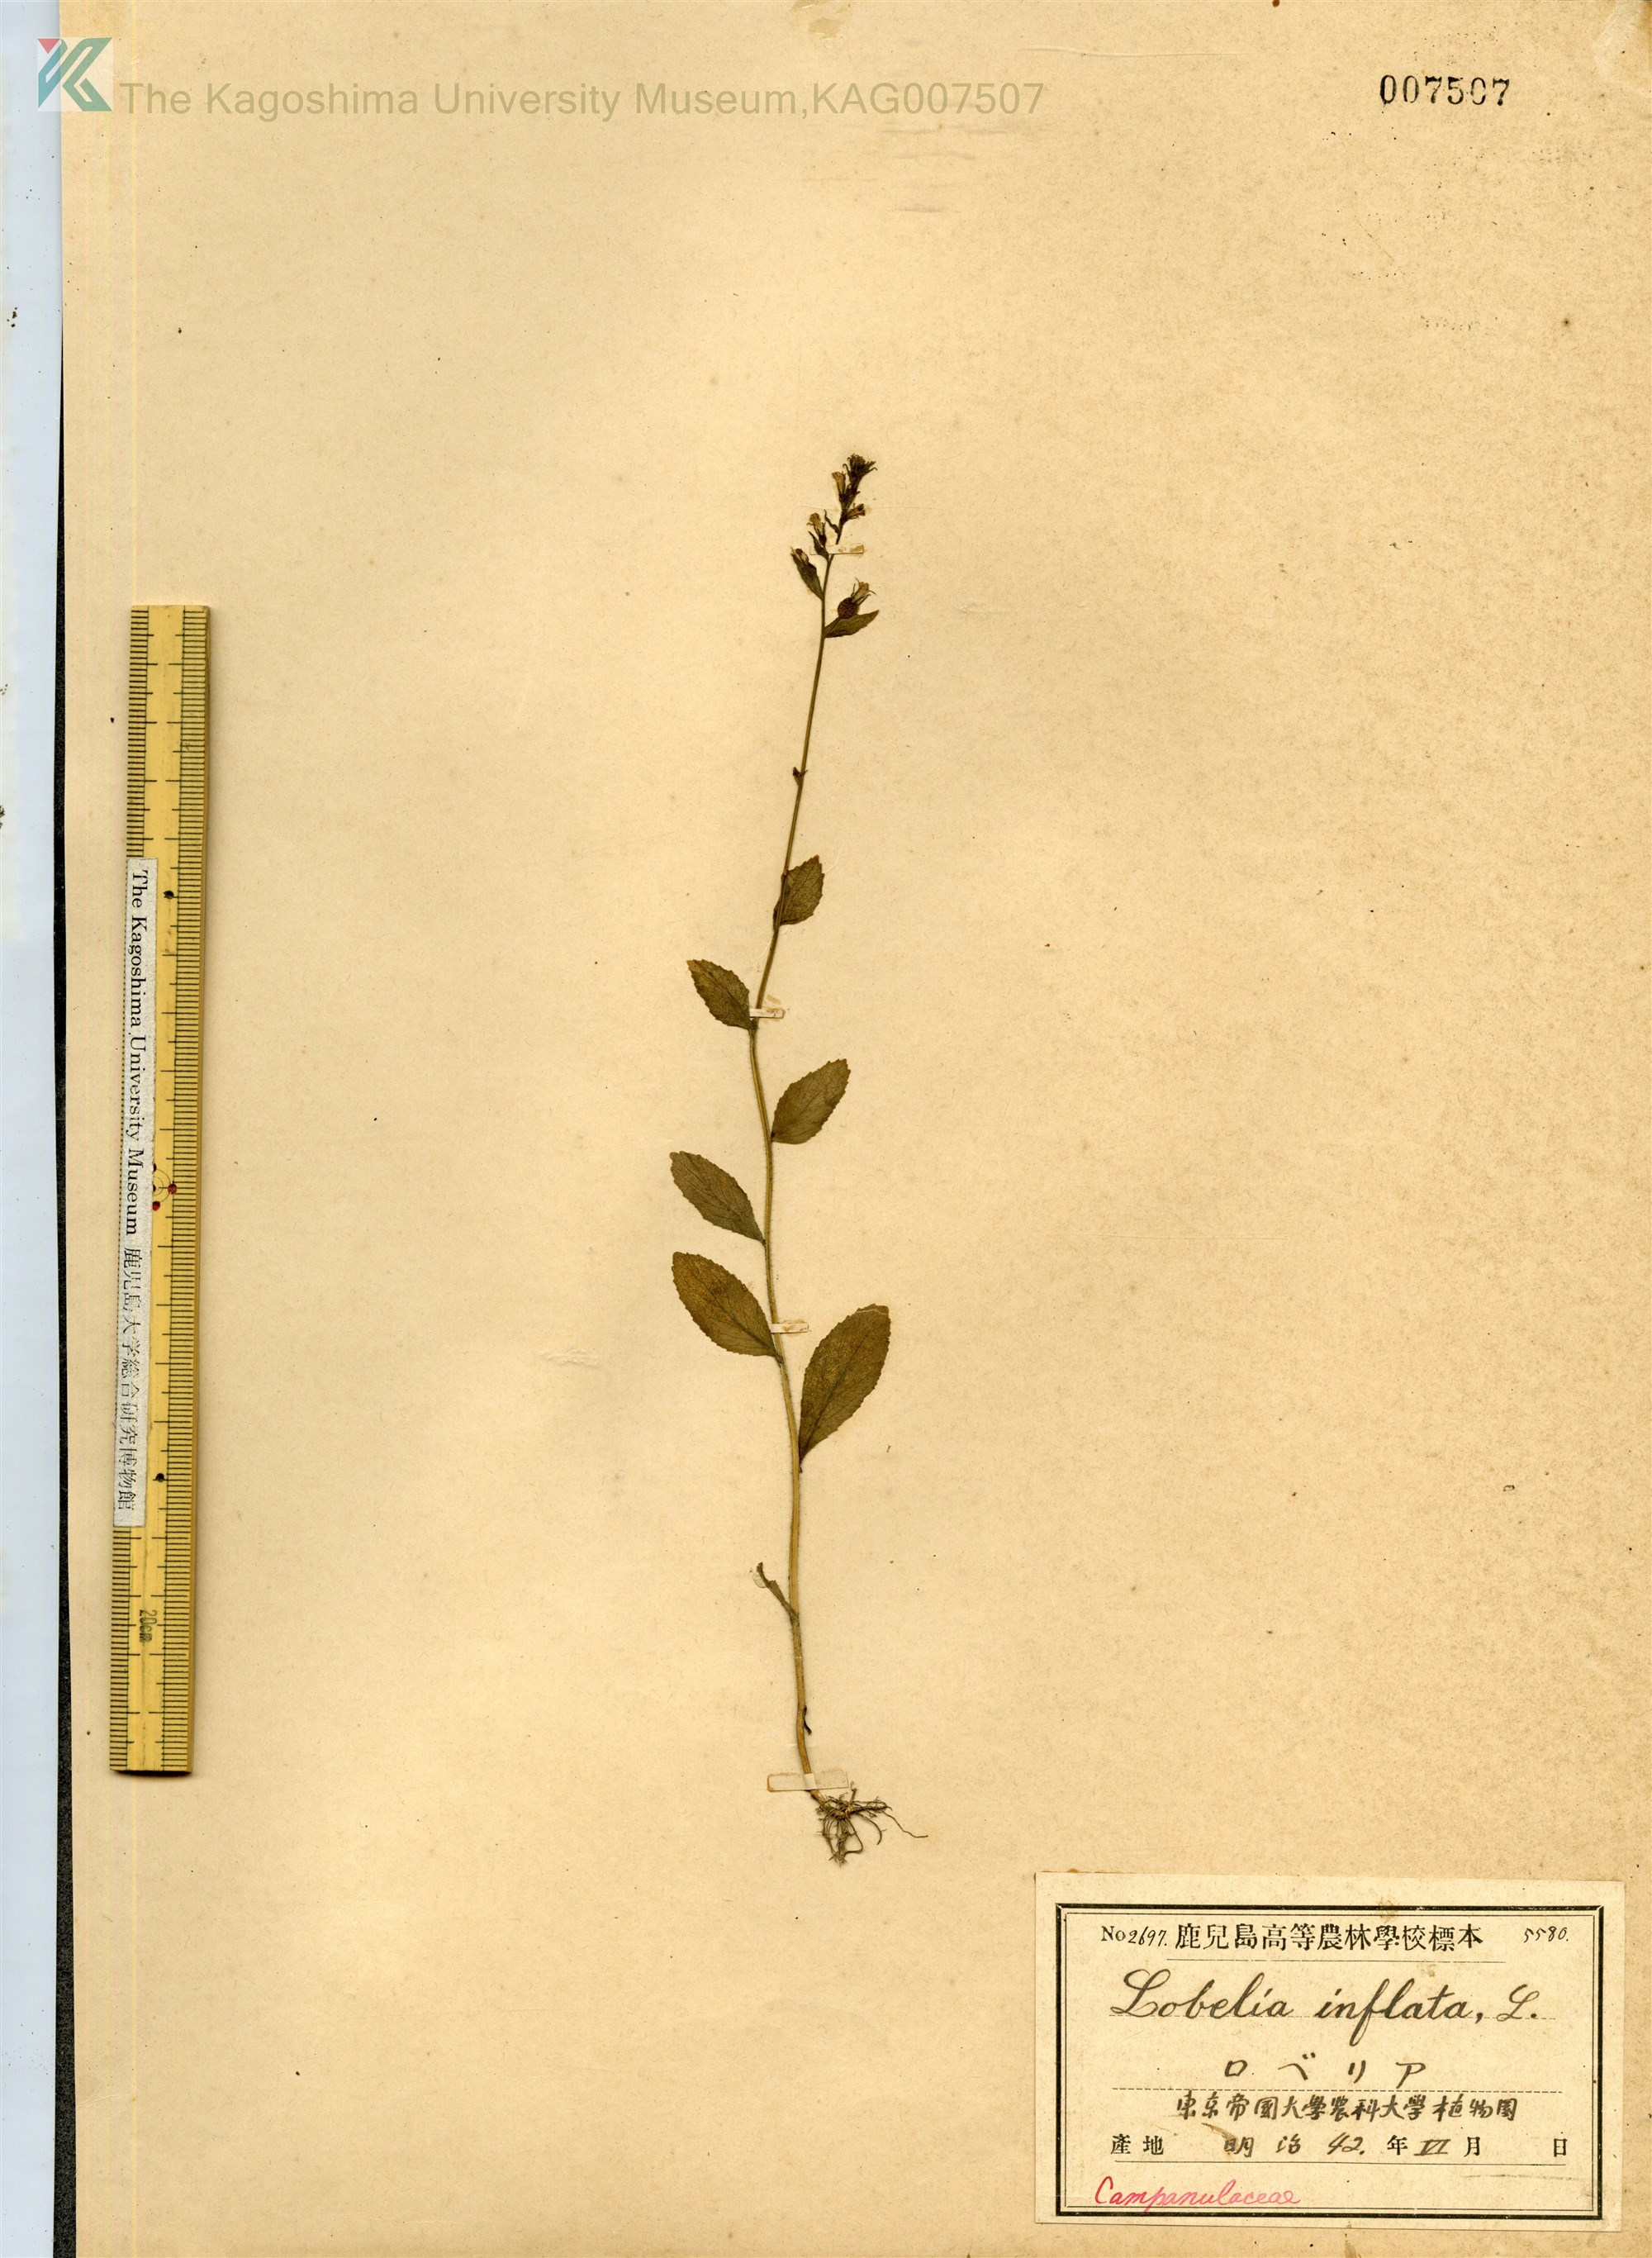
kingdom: Plantae
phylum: Tracheophyta
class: Magnoliopsida
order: Asterales
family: Campanulaceae
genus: Lobelia
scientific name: Lobelia inflata
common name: Indian tobacco
